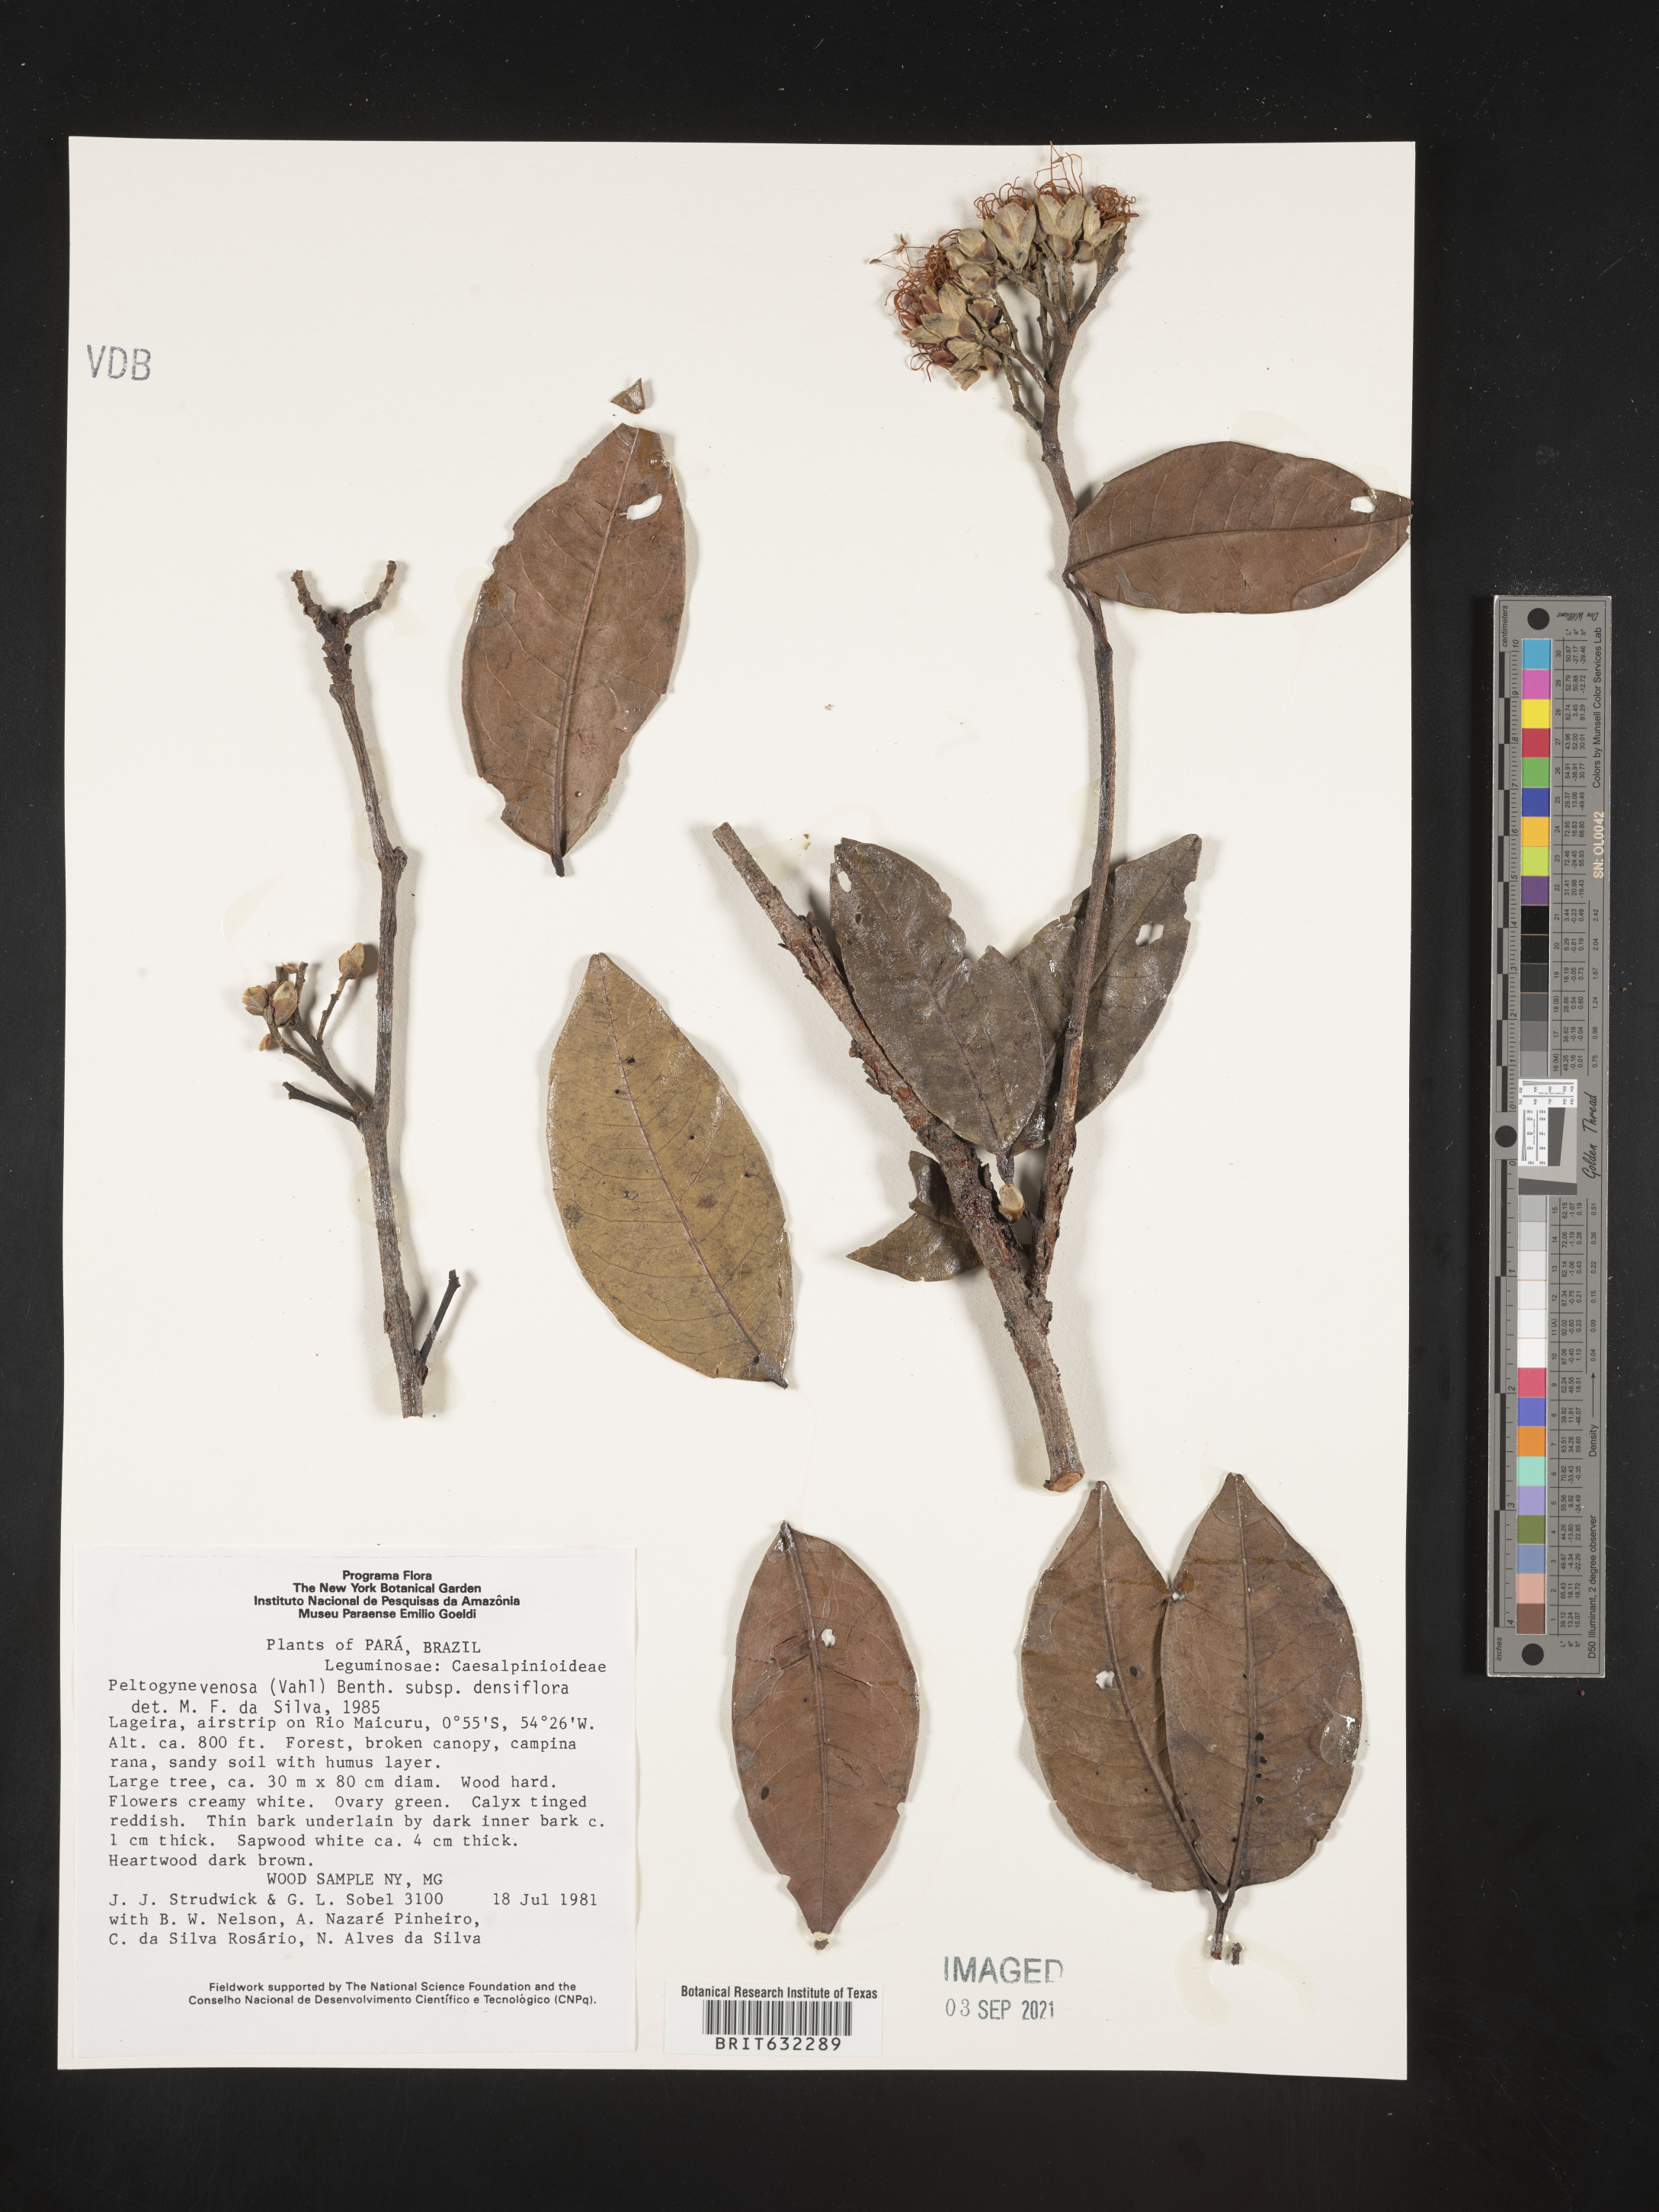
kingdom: Plantae
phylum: Tracheophyta
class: Magnoliopsida
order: Fabales
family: Fabaceae
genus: Peltogyne
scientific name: Peltogyne
